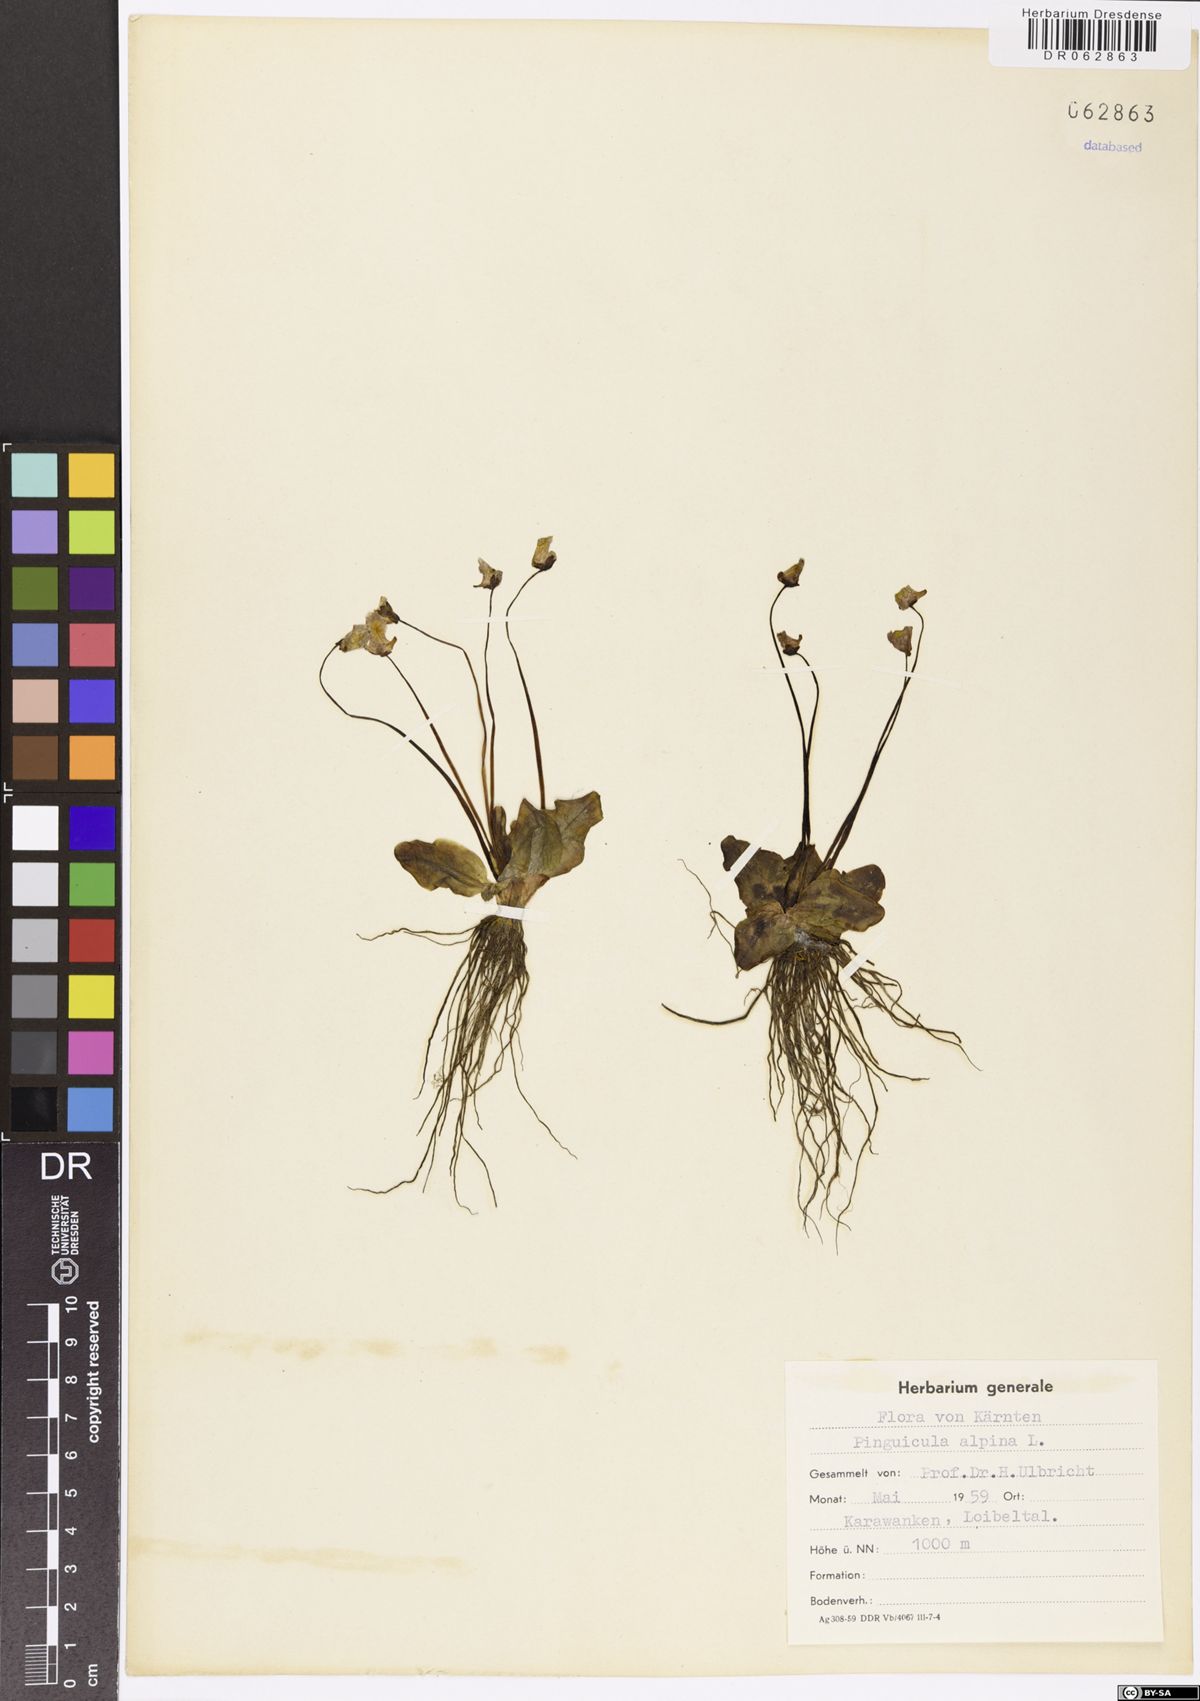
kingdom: Plantae
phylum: Tracheophyta
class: Magnoliopsida
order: Lamiales
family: Lentibulariaceae
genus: Pinguicula
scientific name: Pinguicula alpina
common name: Alpine butterwort
